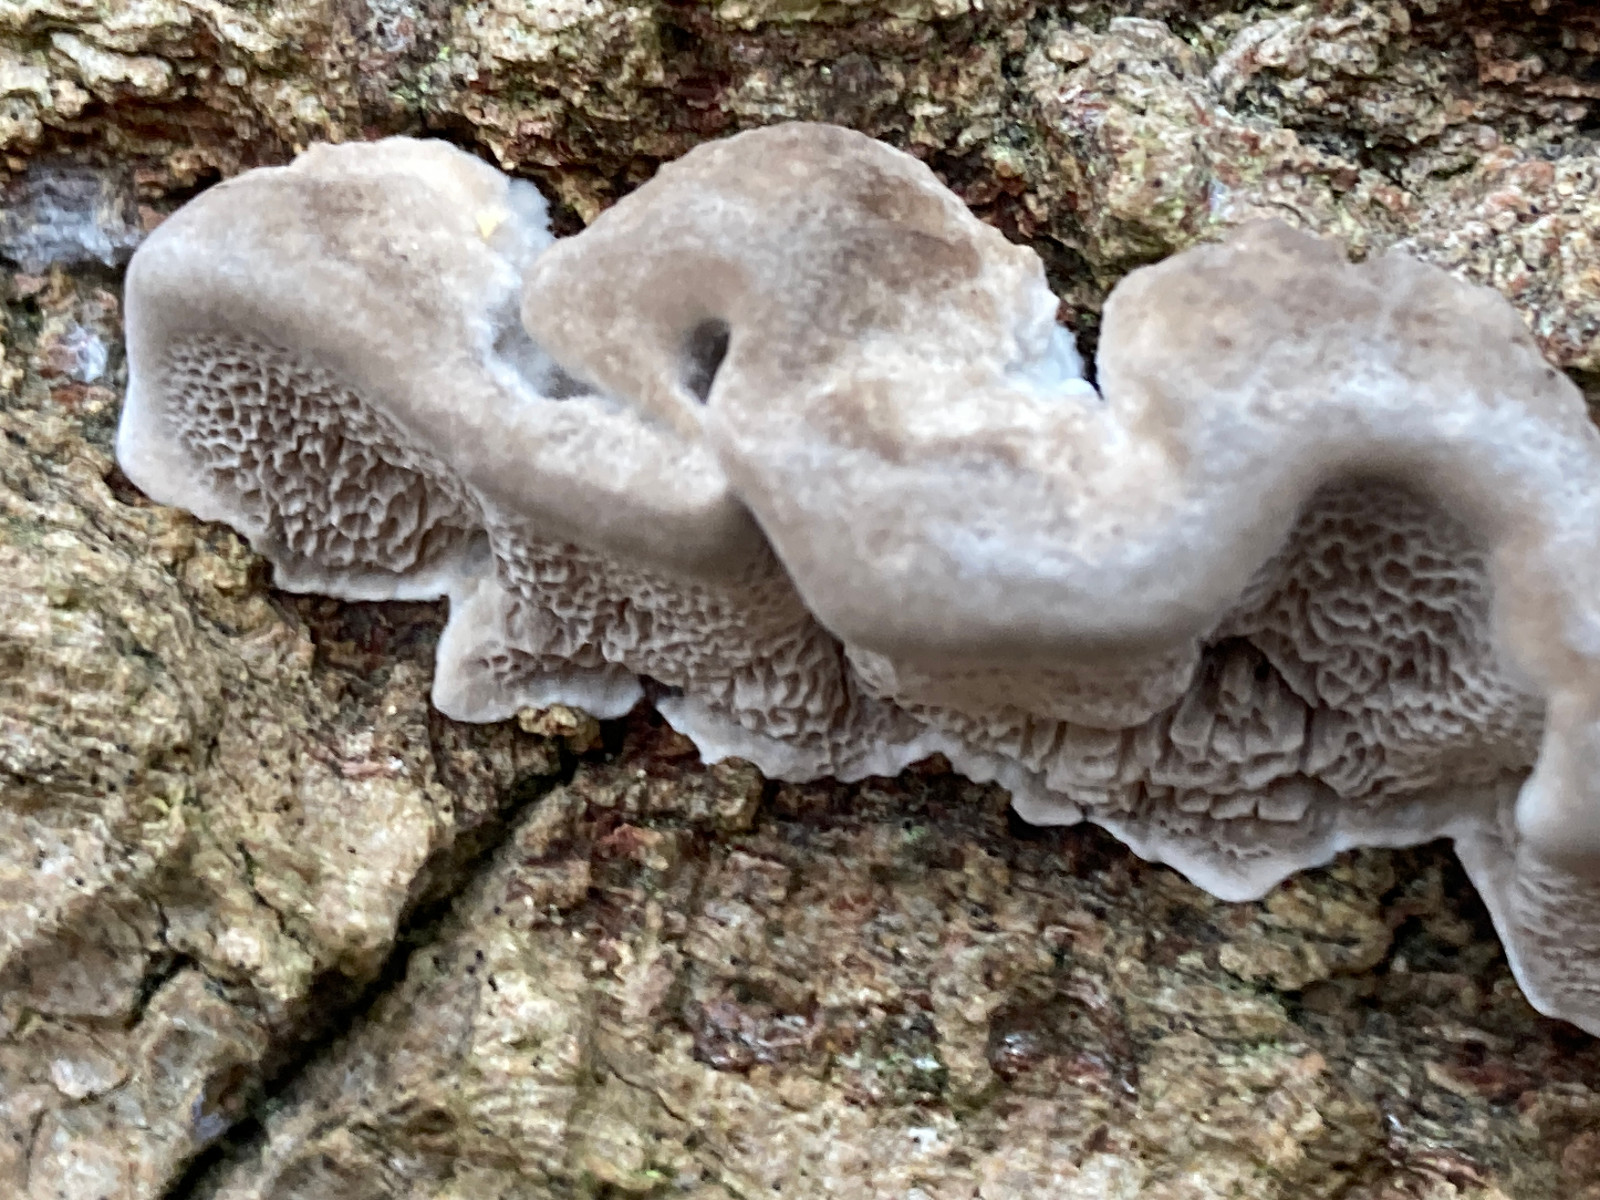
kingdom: Fungi
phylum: Basidiomycota
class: Agaricomycetes
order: Polyporales
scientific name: Polyporales
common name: poresvampordenen
